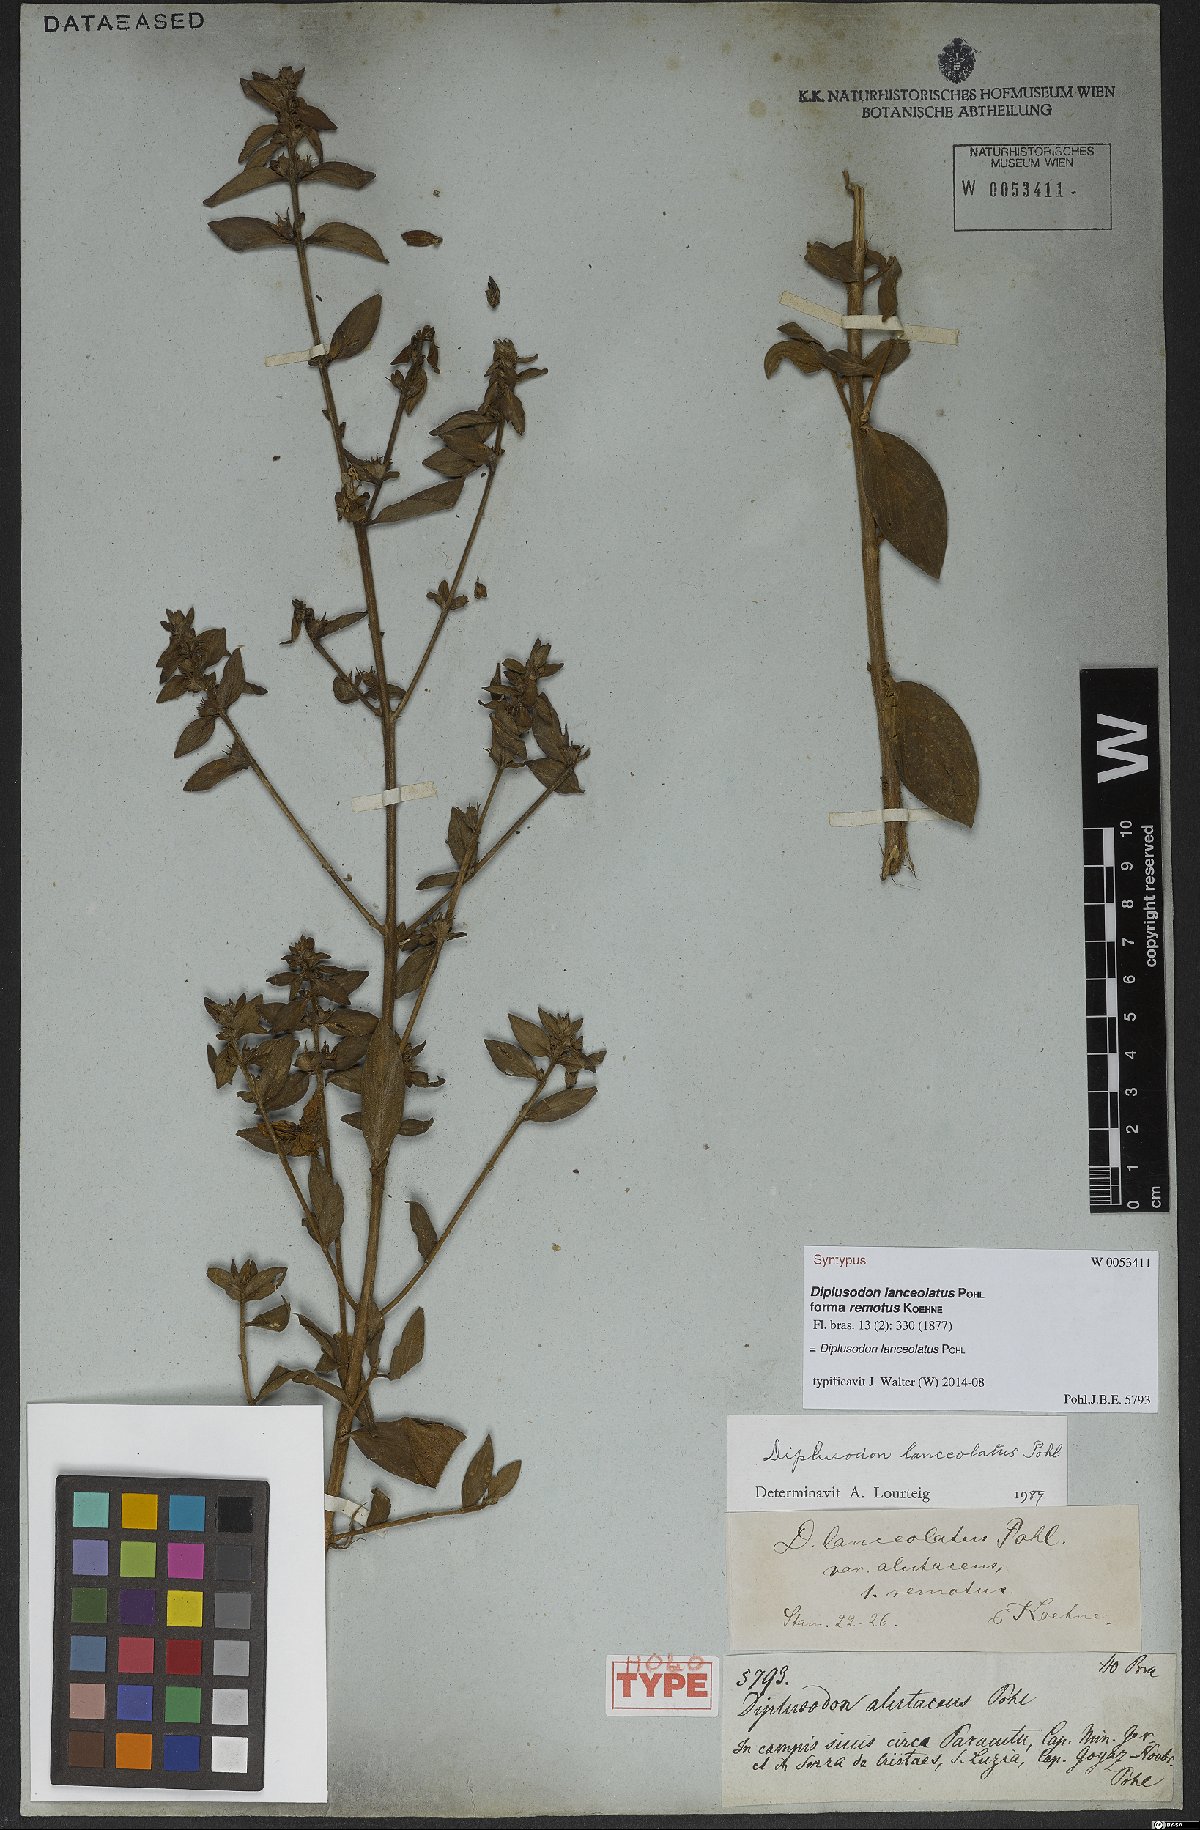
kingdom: Plantae
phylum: Tracheophyta
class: Magnoliopsida
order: Myrtales
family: Lythraceae
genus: Diplusodon
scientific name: Diplusodon lanceolatus
